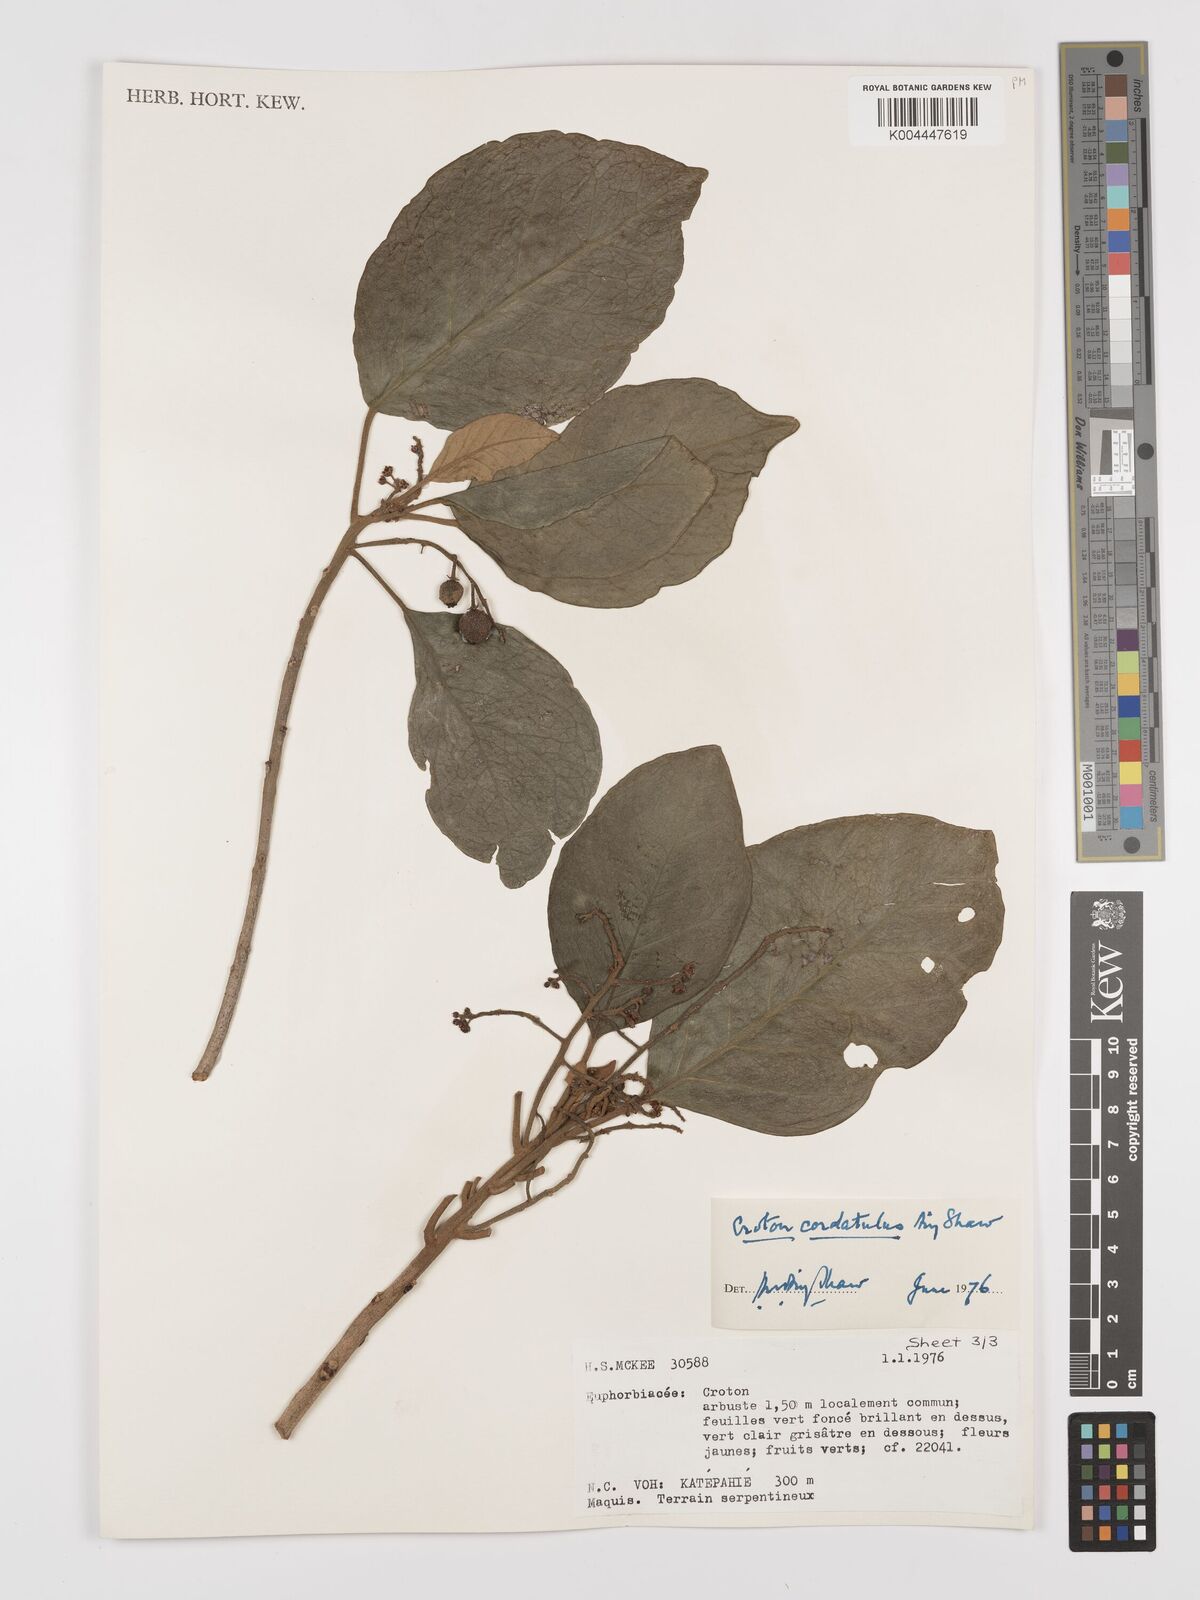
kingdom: Plantae
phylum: Tracheophyta
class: Magnoliopsida
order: Malpighiales
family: Euphorbiaceae
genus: Croton
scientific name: Croton cordatulus
